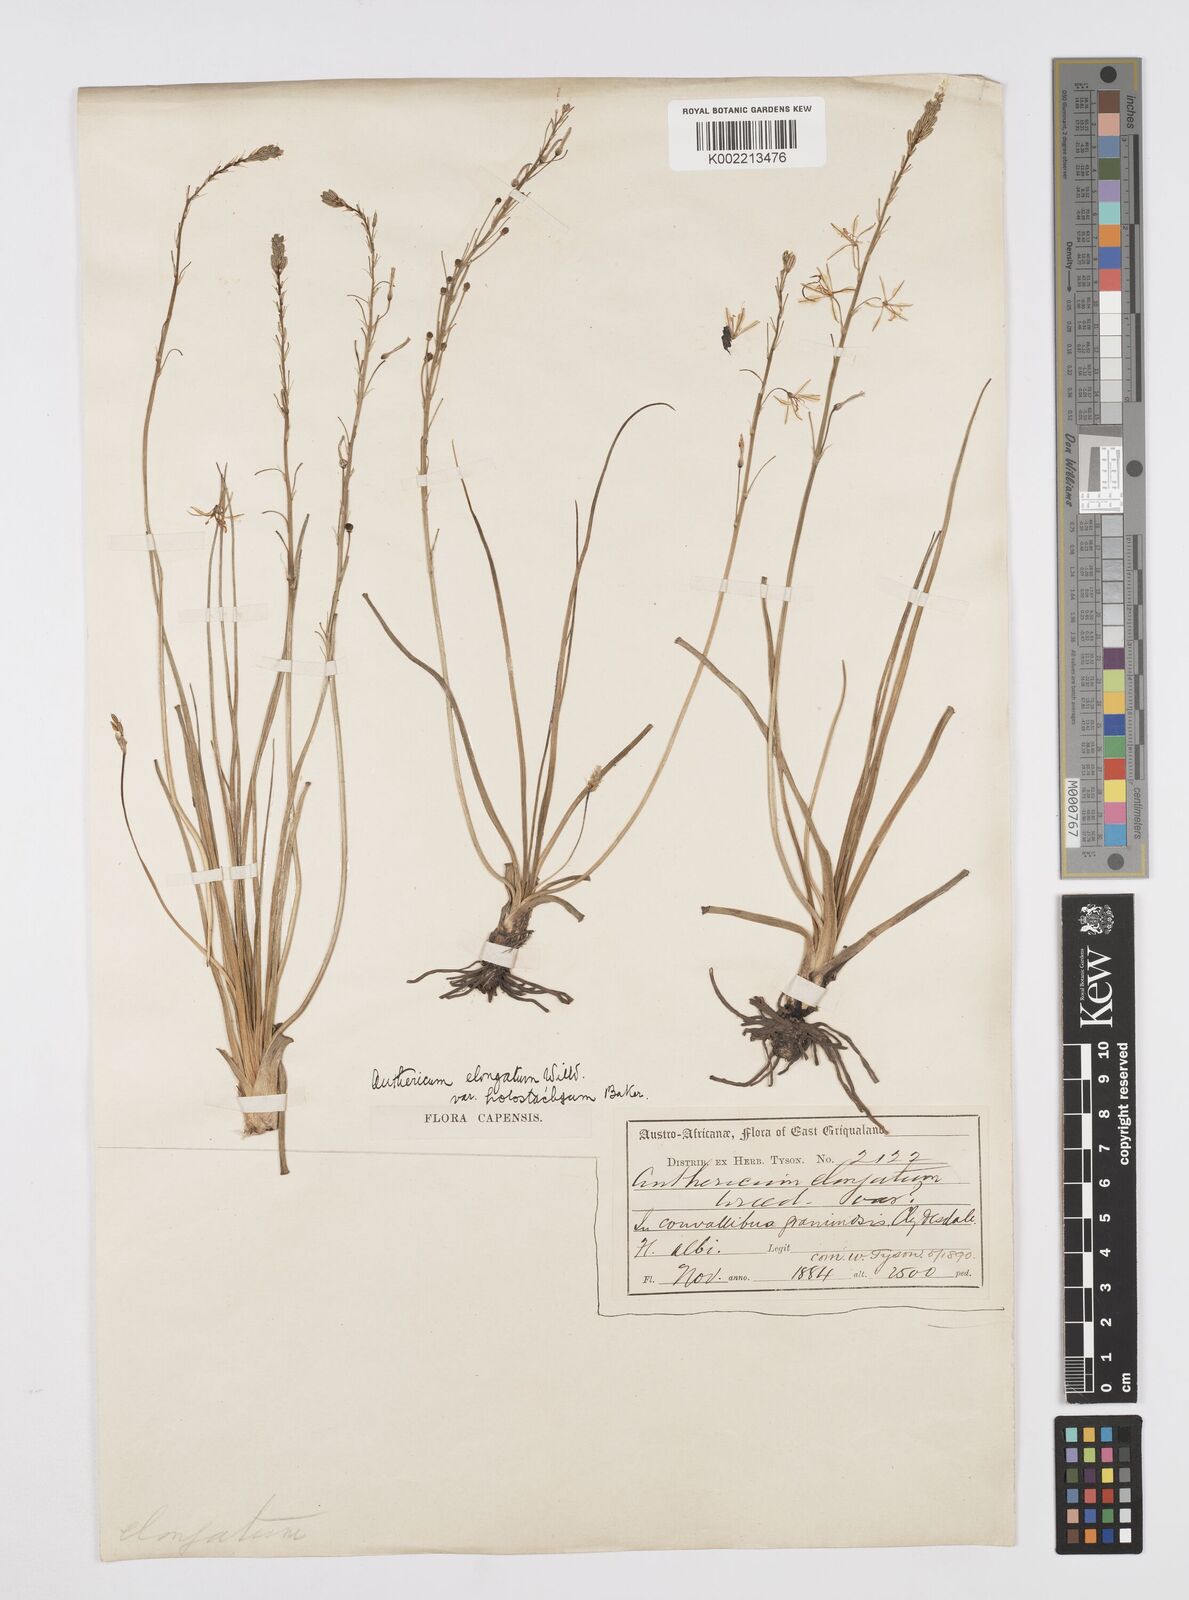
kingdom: Plantae
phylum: Tracheophyta
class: Liliopsida
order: Asparagales
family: Asphodelaceae
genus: Trachyandra
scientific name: Trachyandra saltii
